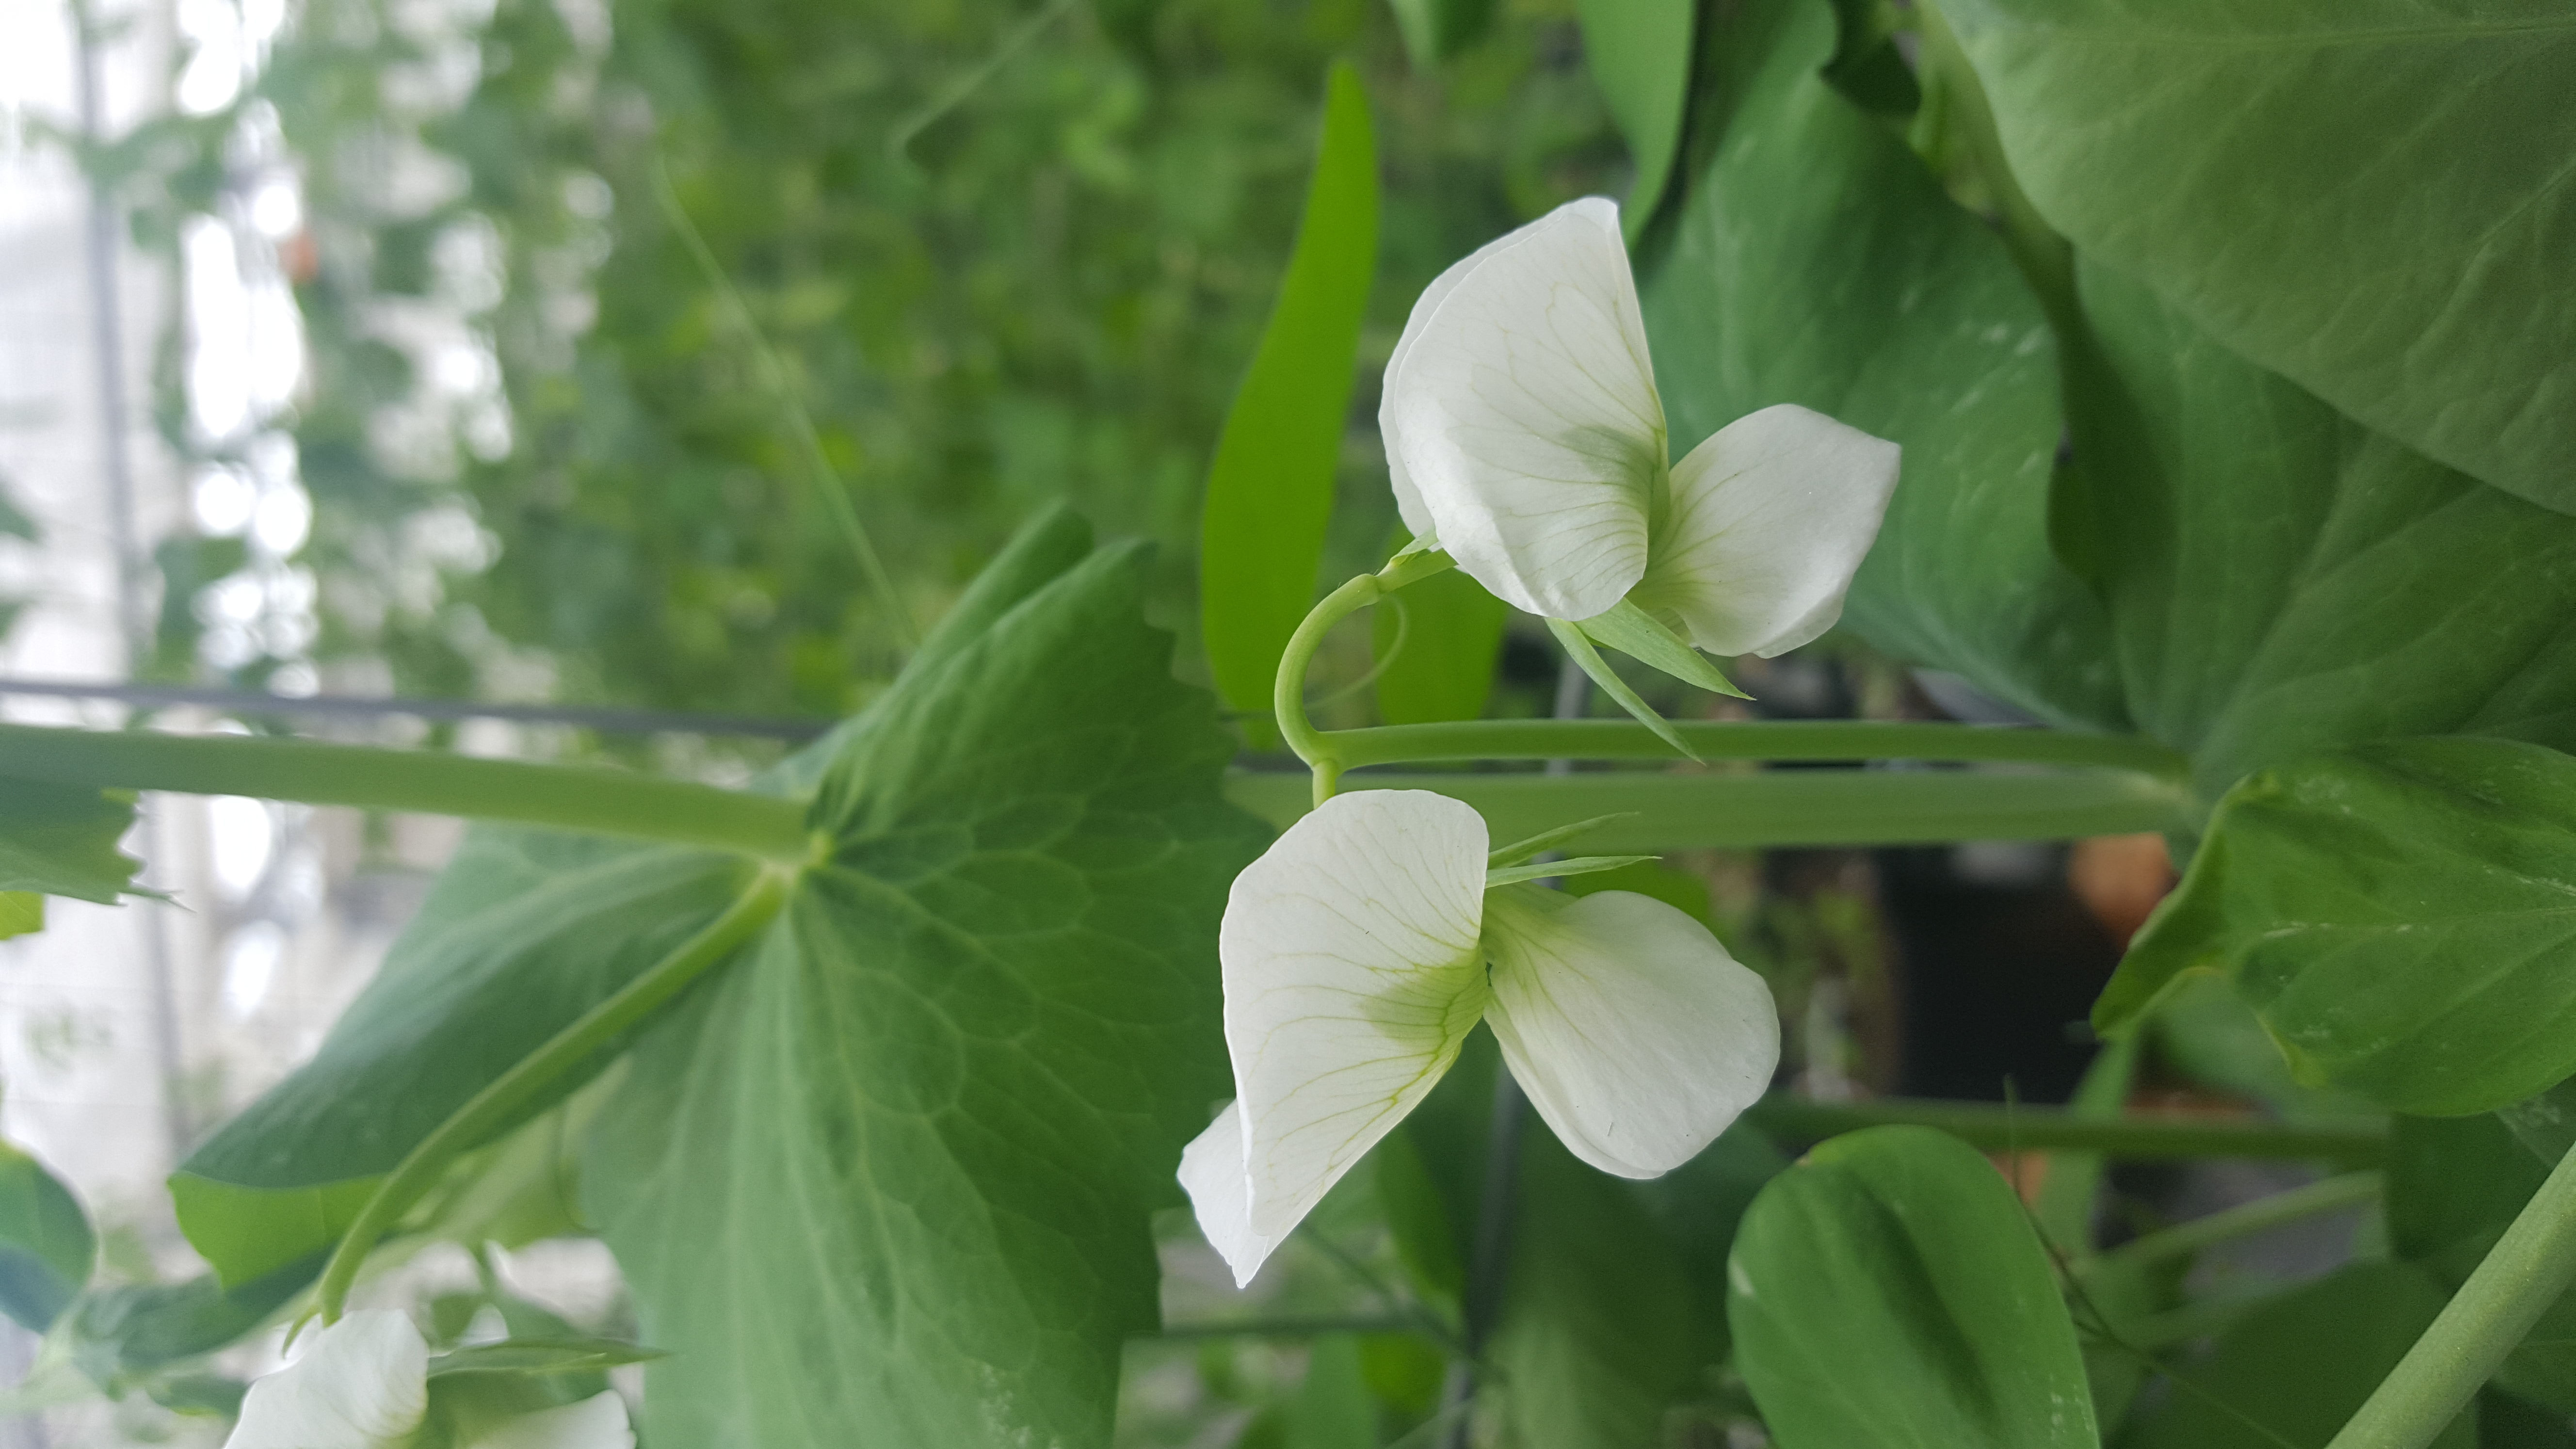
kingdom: Plantae
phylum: Tracheophyta
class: Magnoliopsida
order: Fabales
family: Fabaceae
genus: Lathyrus
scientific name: Lathyrus oleraceus
